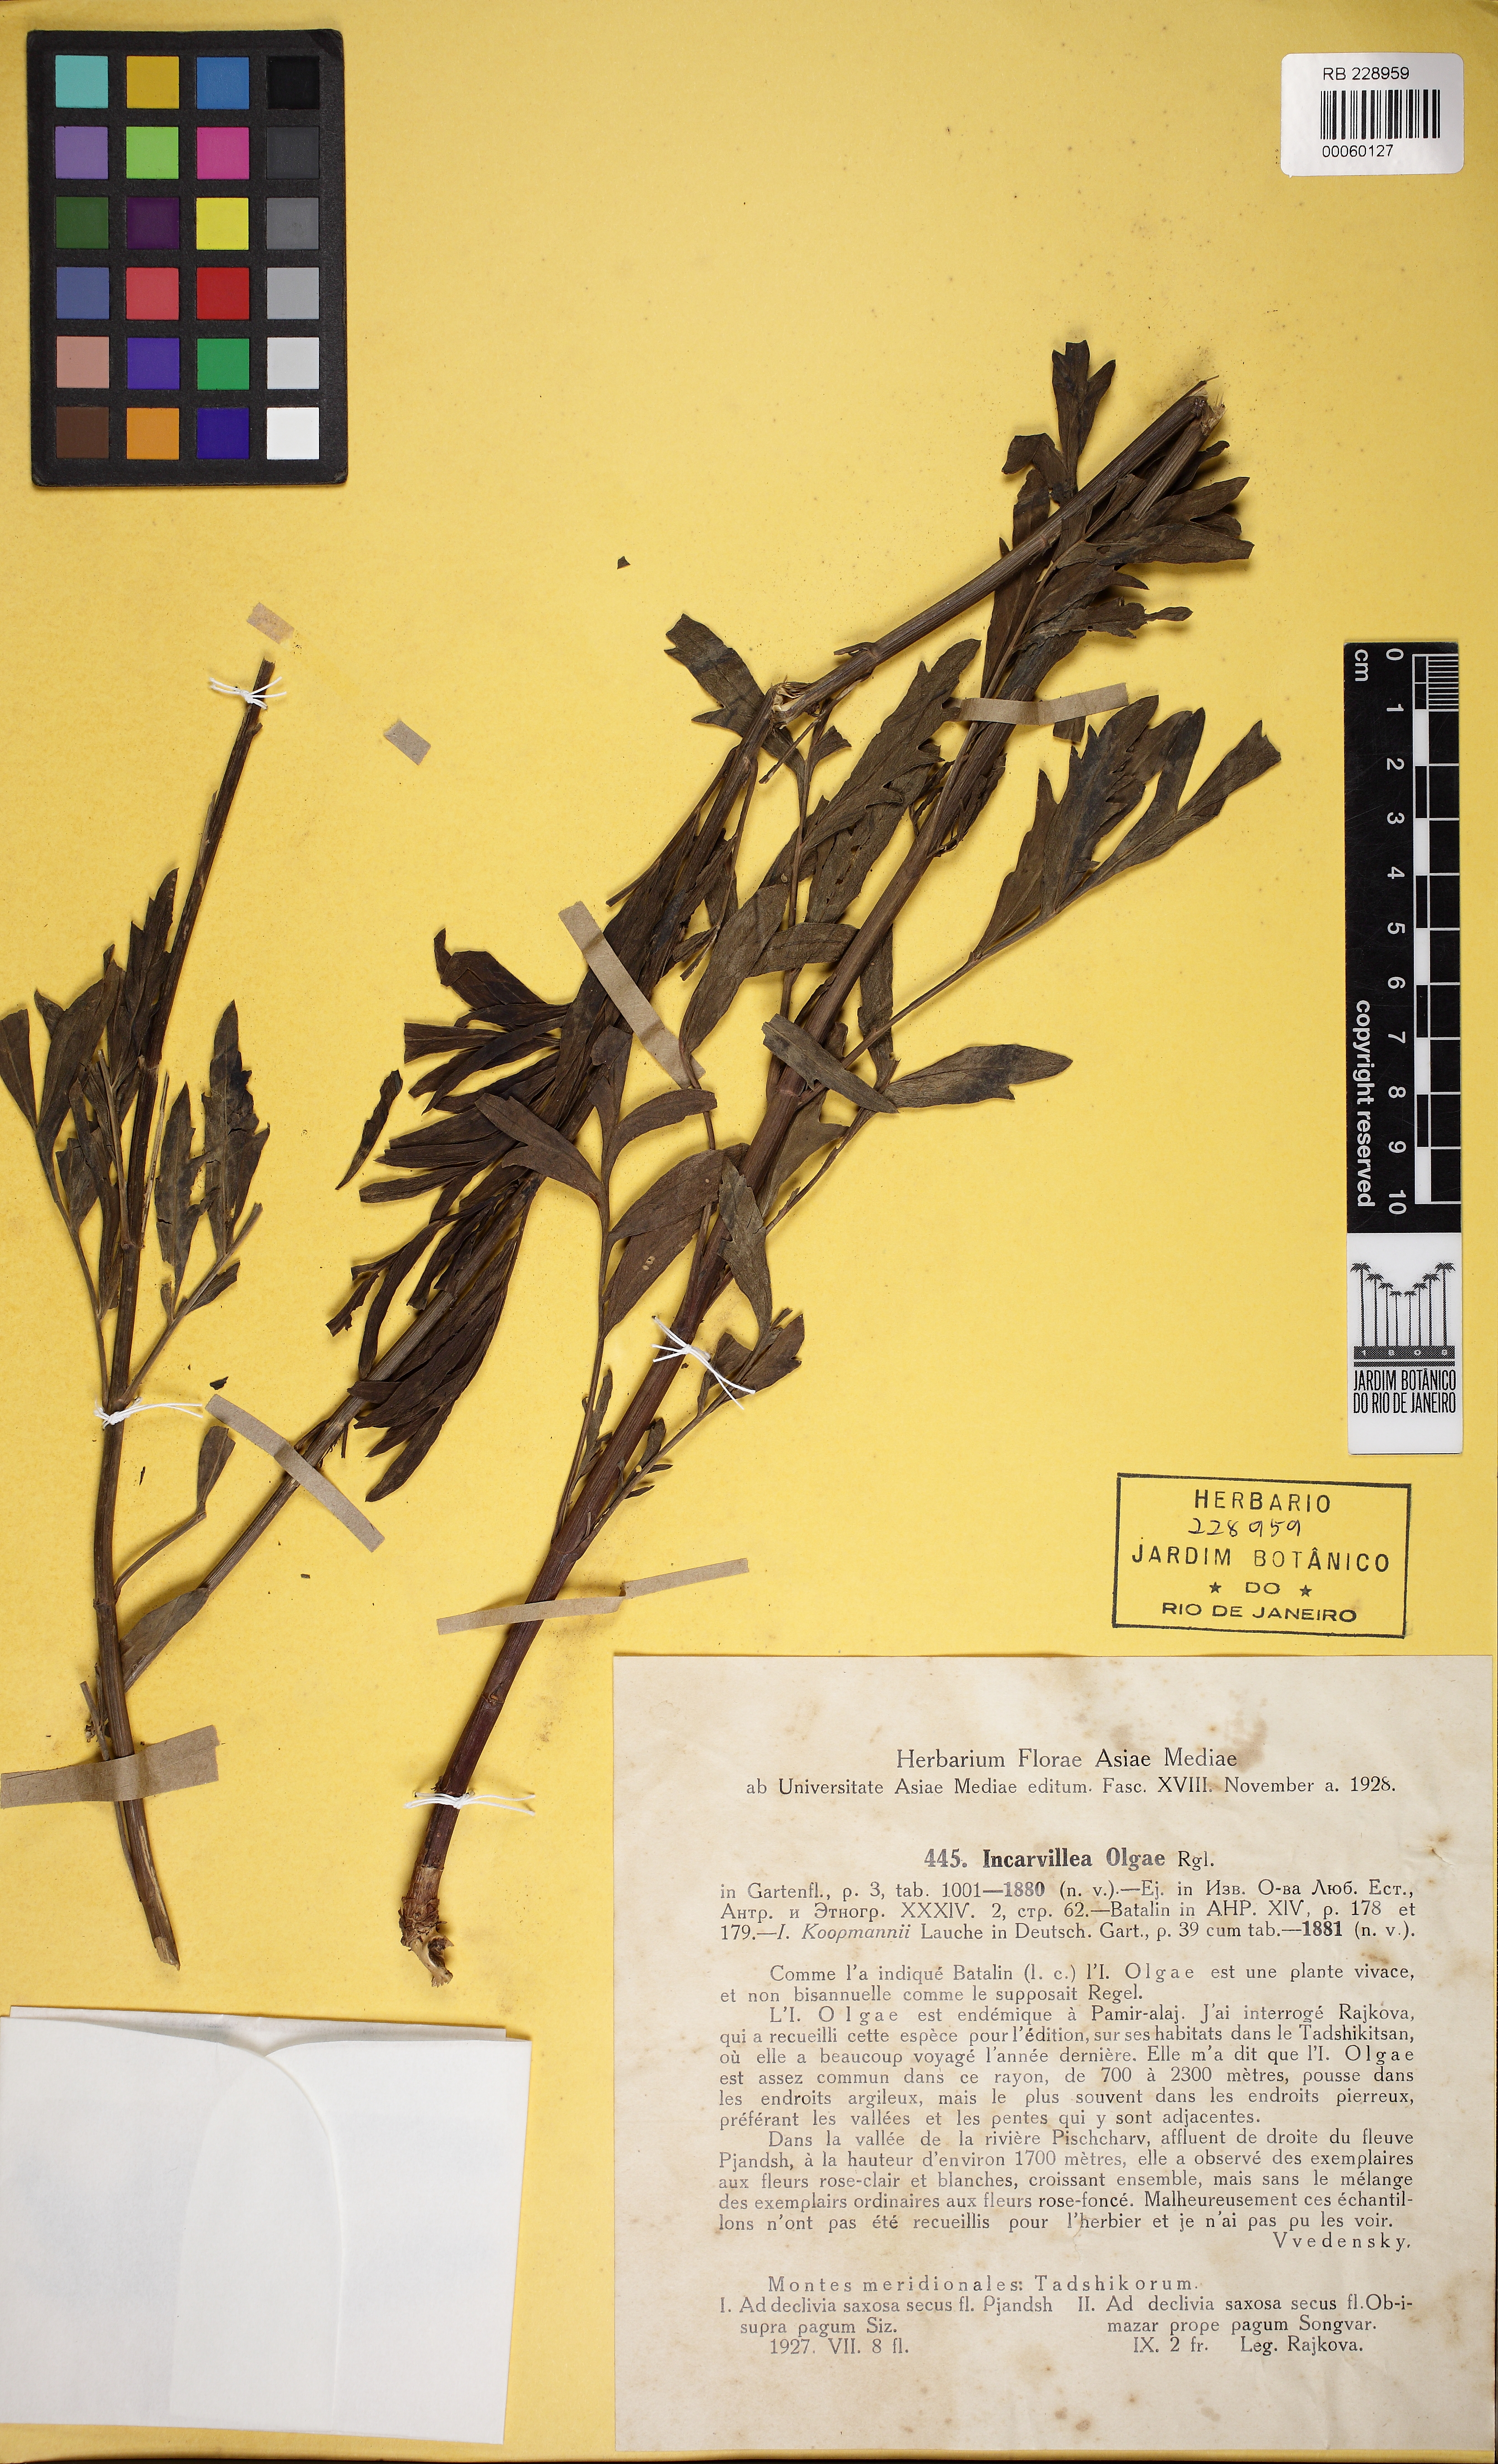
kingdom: Plantae
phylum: Tracheophyta
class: Magnoliopsida
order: Lamiales
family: Bignoniaceae
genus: Incarvillea
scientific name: Incarvillea olgae
